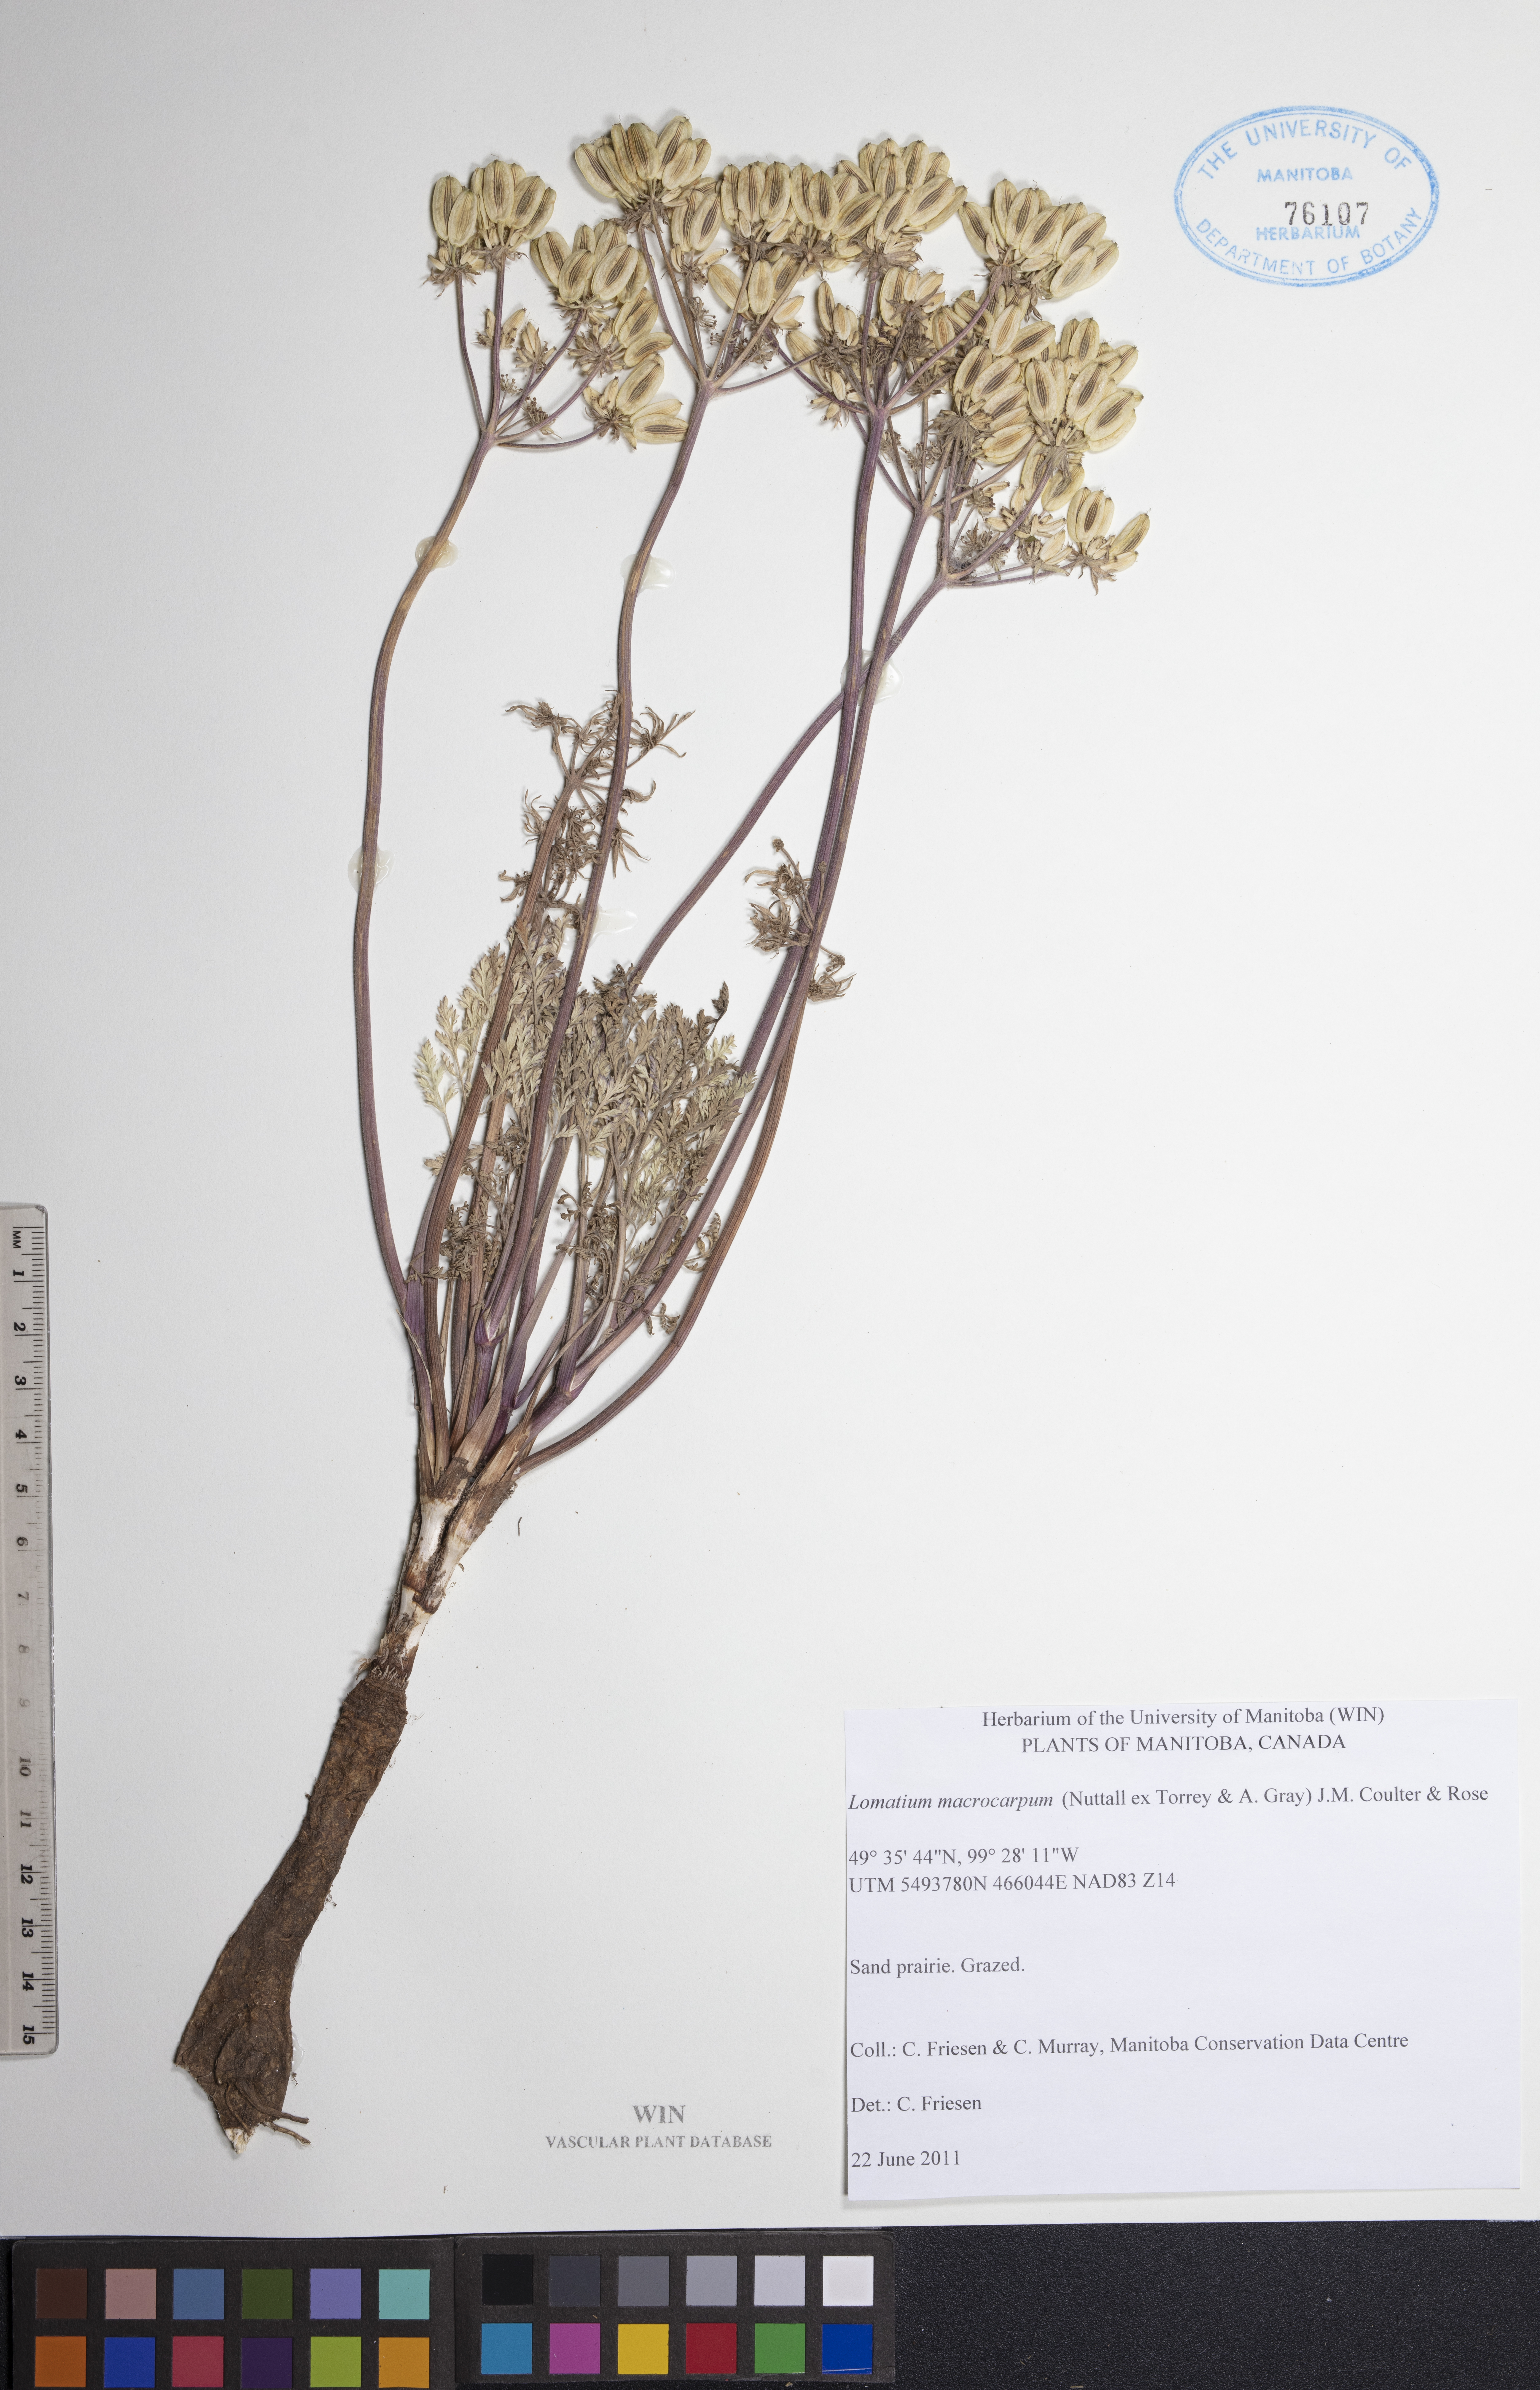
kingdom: Plantae
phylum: Tracheophyta
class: Magnoliopsida
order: Apiales
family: Apiaceae
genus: Lomatium
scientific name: Lomatium macrocarpum
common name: Big-seed biscuitroot
